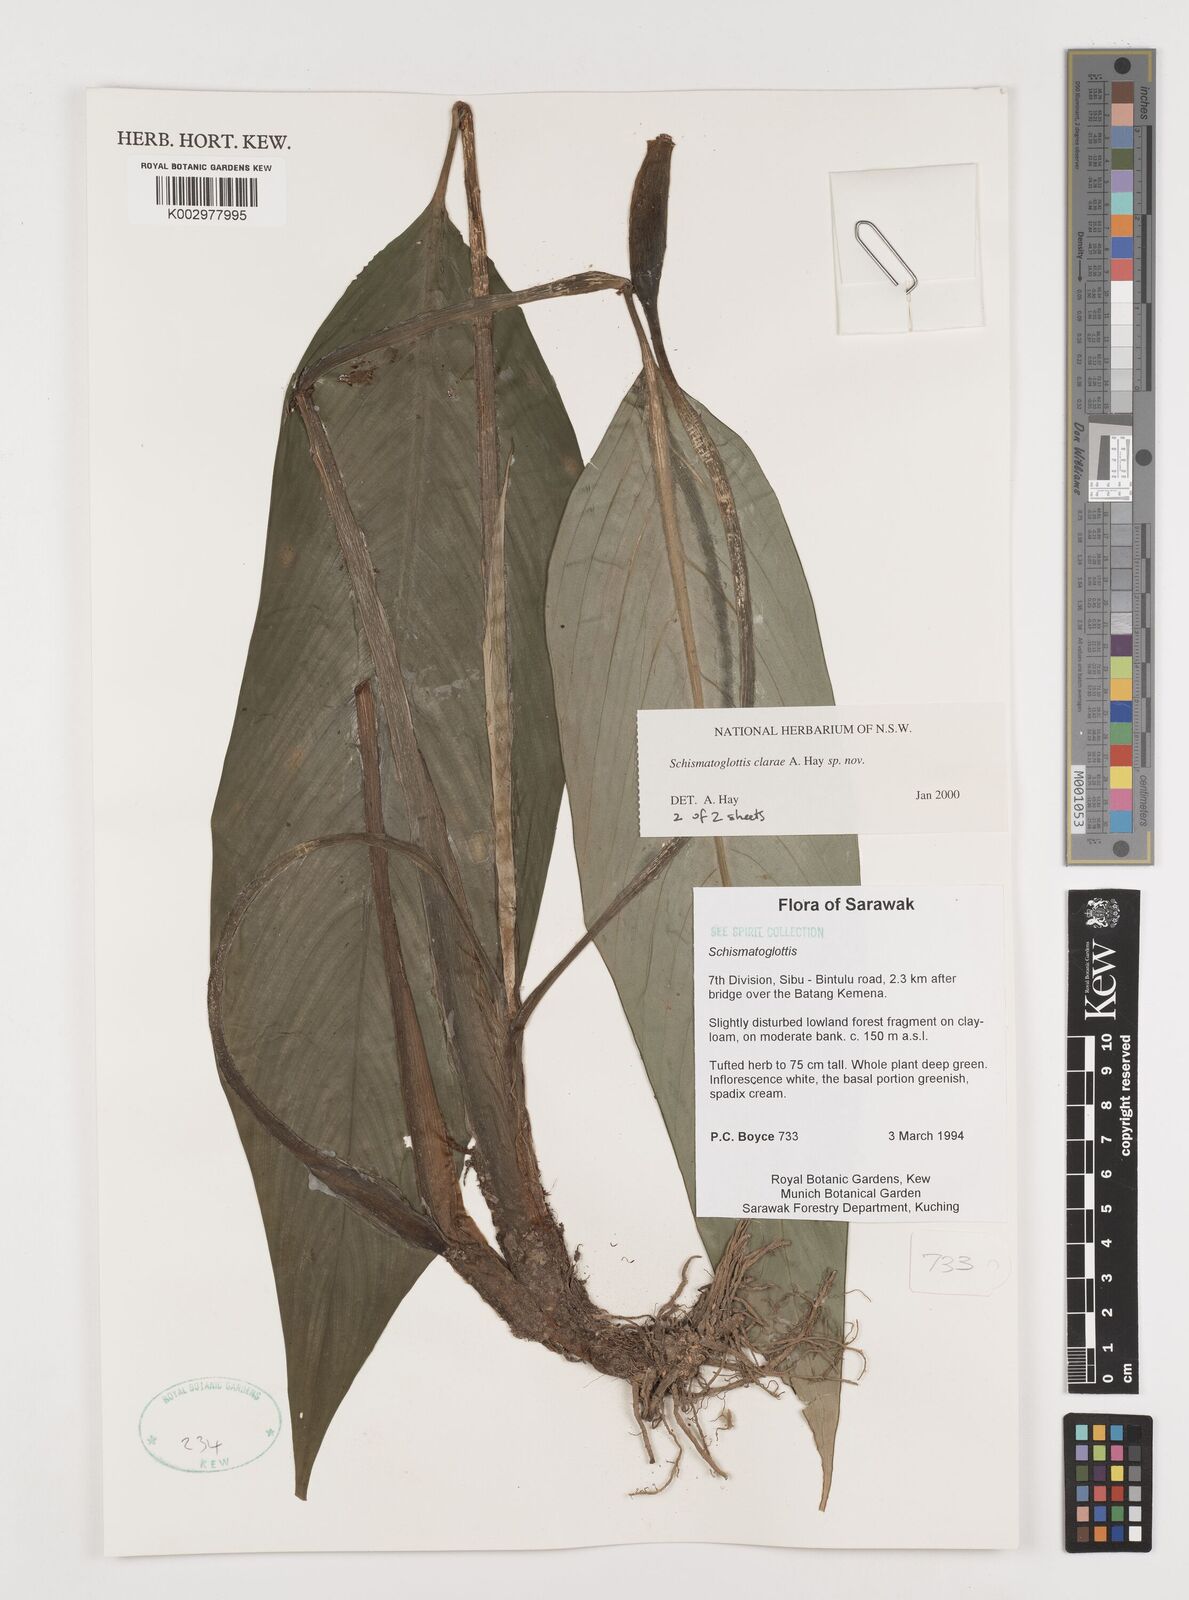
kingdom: Plantae
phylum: Tracheophyta
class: Liliopsida
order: Alismatales
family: Araceae
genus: Schismatoglottis
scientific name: Schismatoglottis clarae
